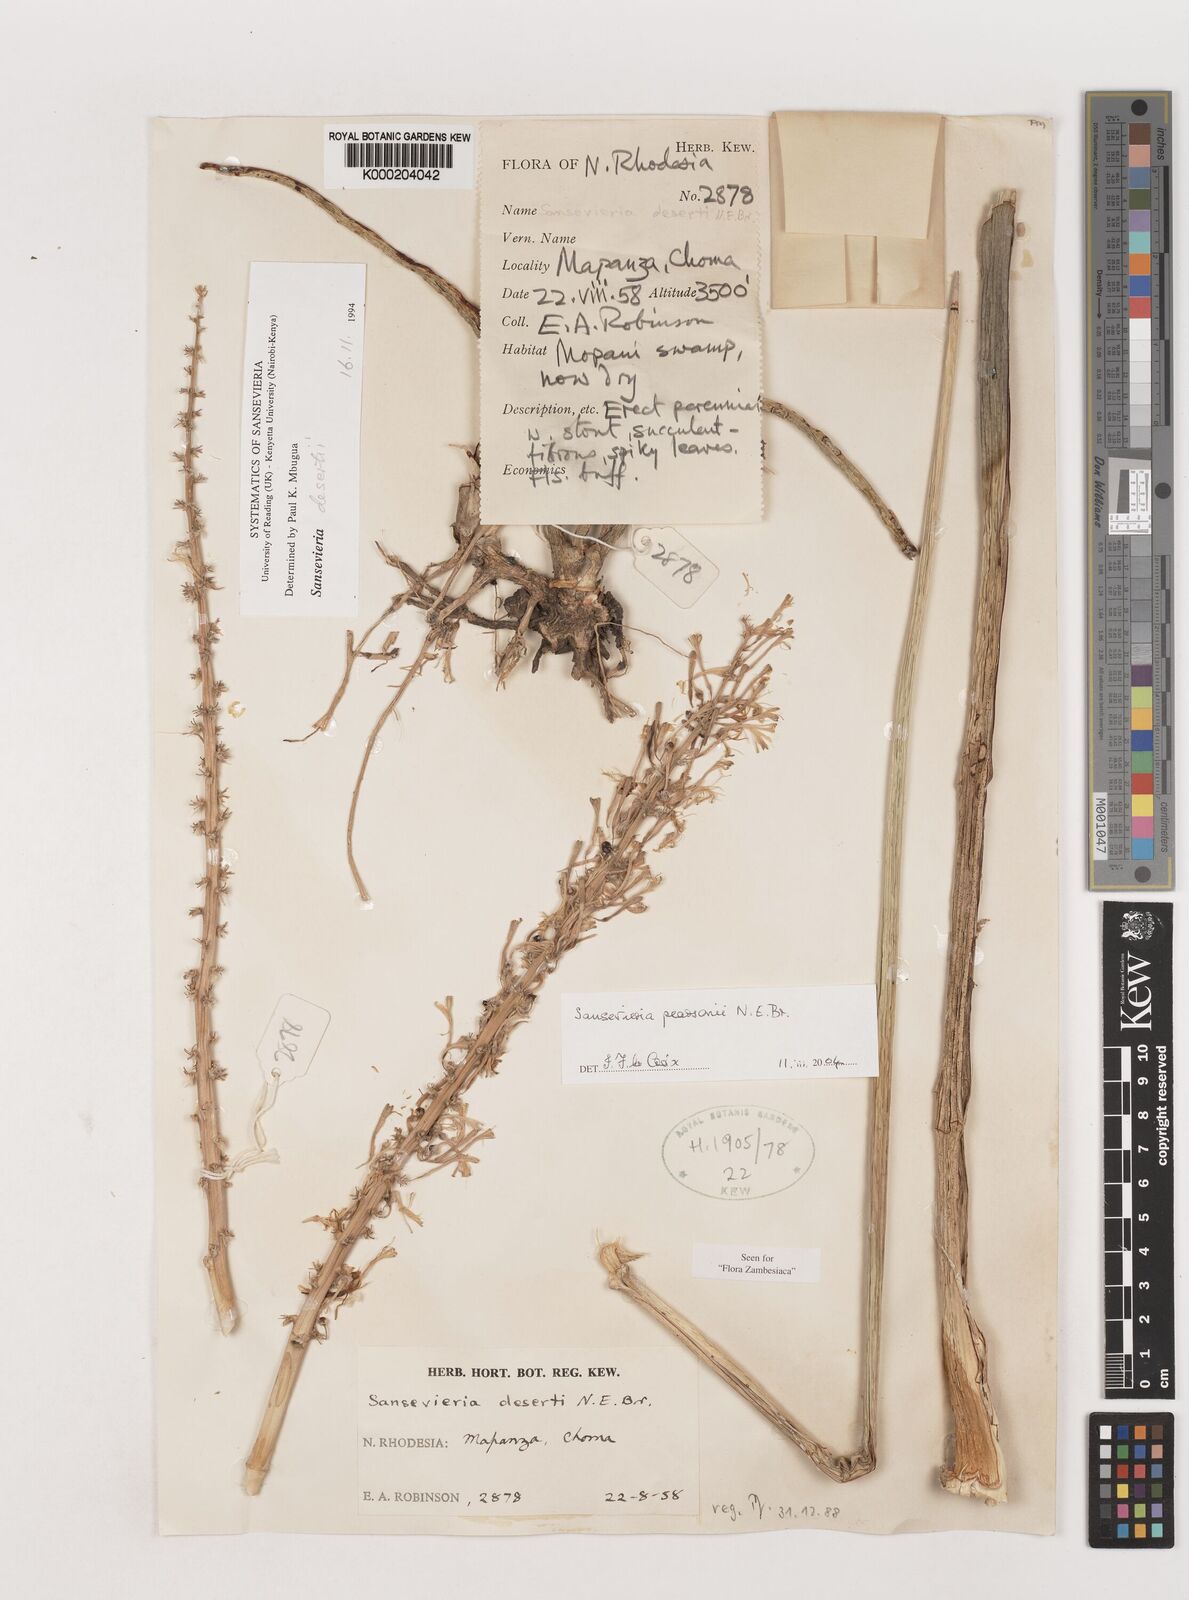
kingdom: Plantae
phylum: Tracheophyta
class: Liliopsida
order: Asparagales
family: Asparagaceae
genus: Dracaena
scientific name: Dracaena pearsonii
